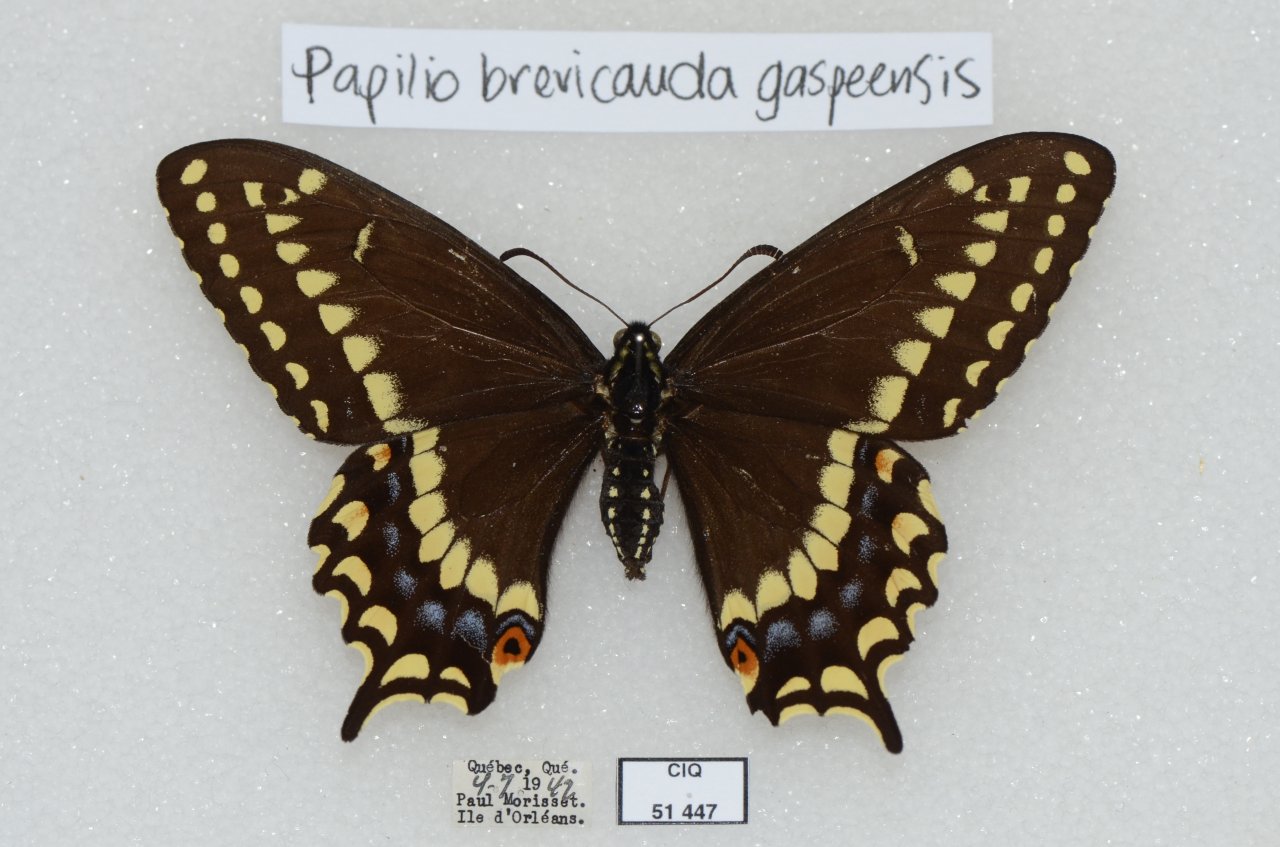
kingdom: Animalia
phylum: Arthropoda
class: Insecta
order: Lepidoptera
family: Papilionidae
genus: Papilio
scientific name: Papilio brevicauda
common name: Short-tailed Swallowtail
